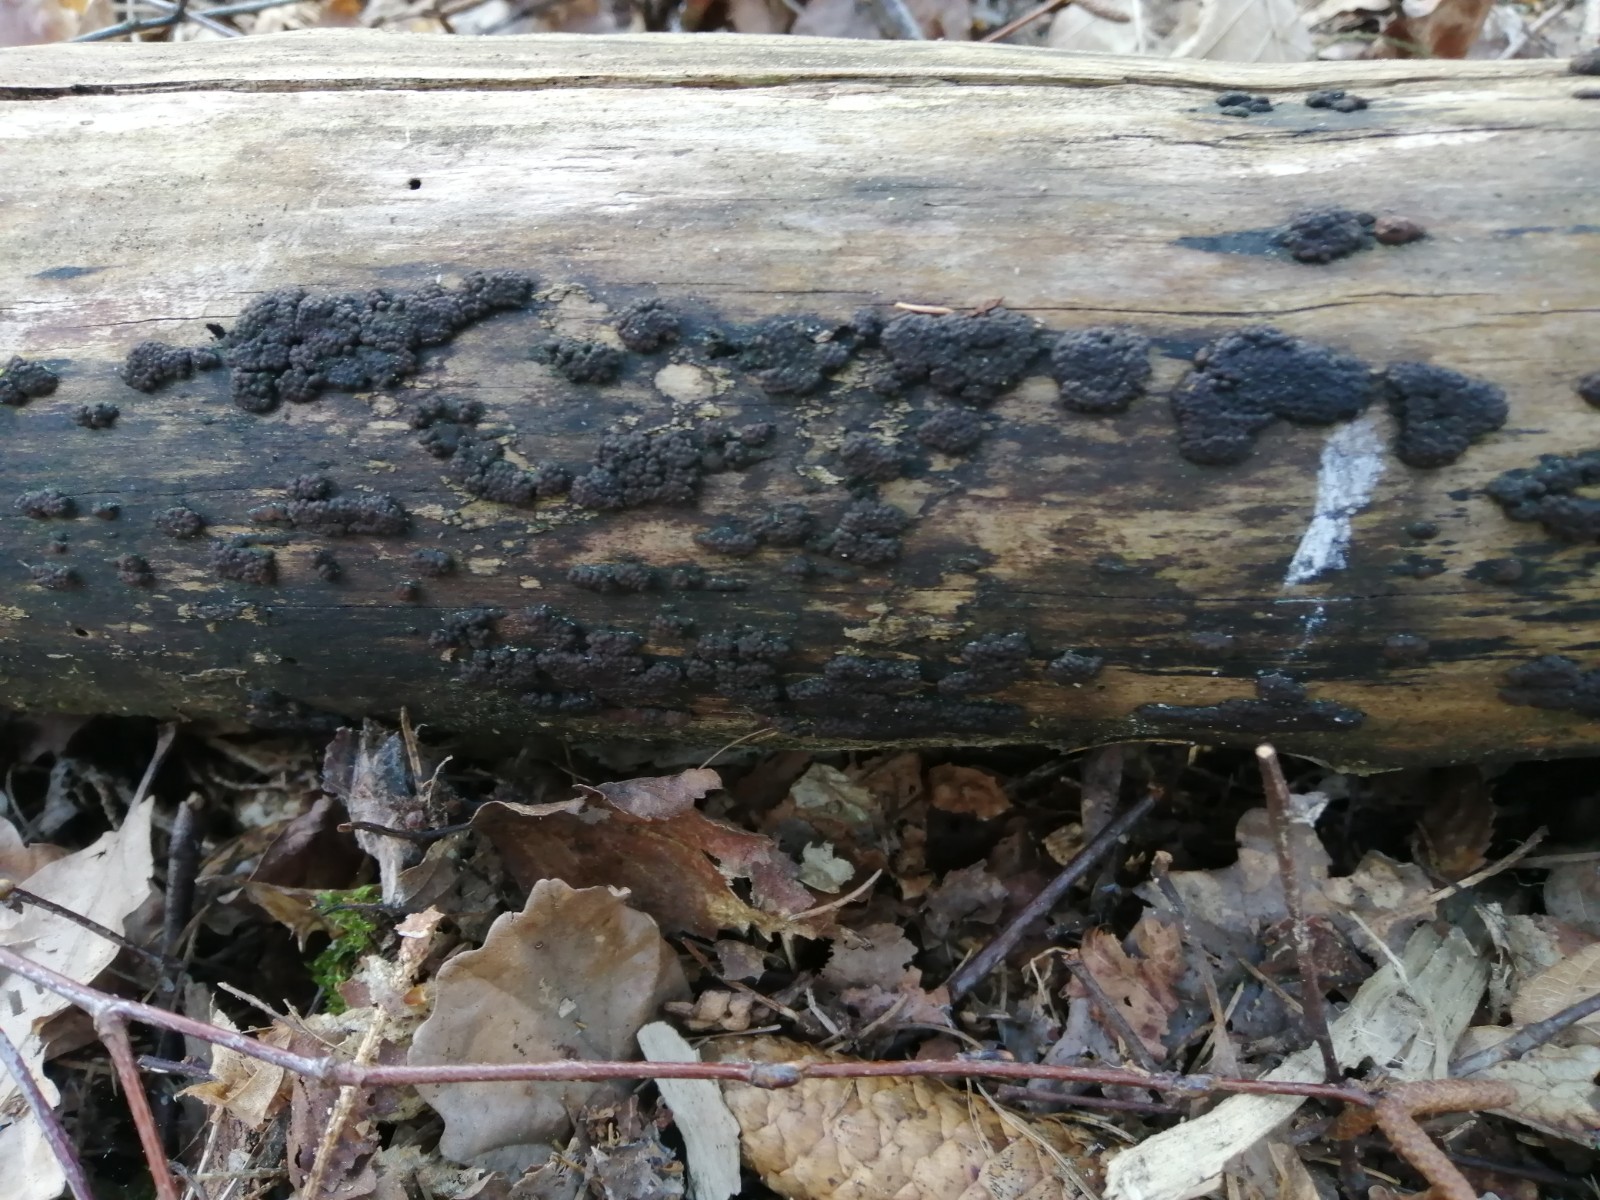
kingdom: Fungi
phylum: Ascomycota
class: Sordariomycetes
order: Xylariales
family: Hypoxylaceae
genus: Jackrogersella
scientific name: Jackrogersella multiformis
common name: foranderlig kulbær
